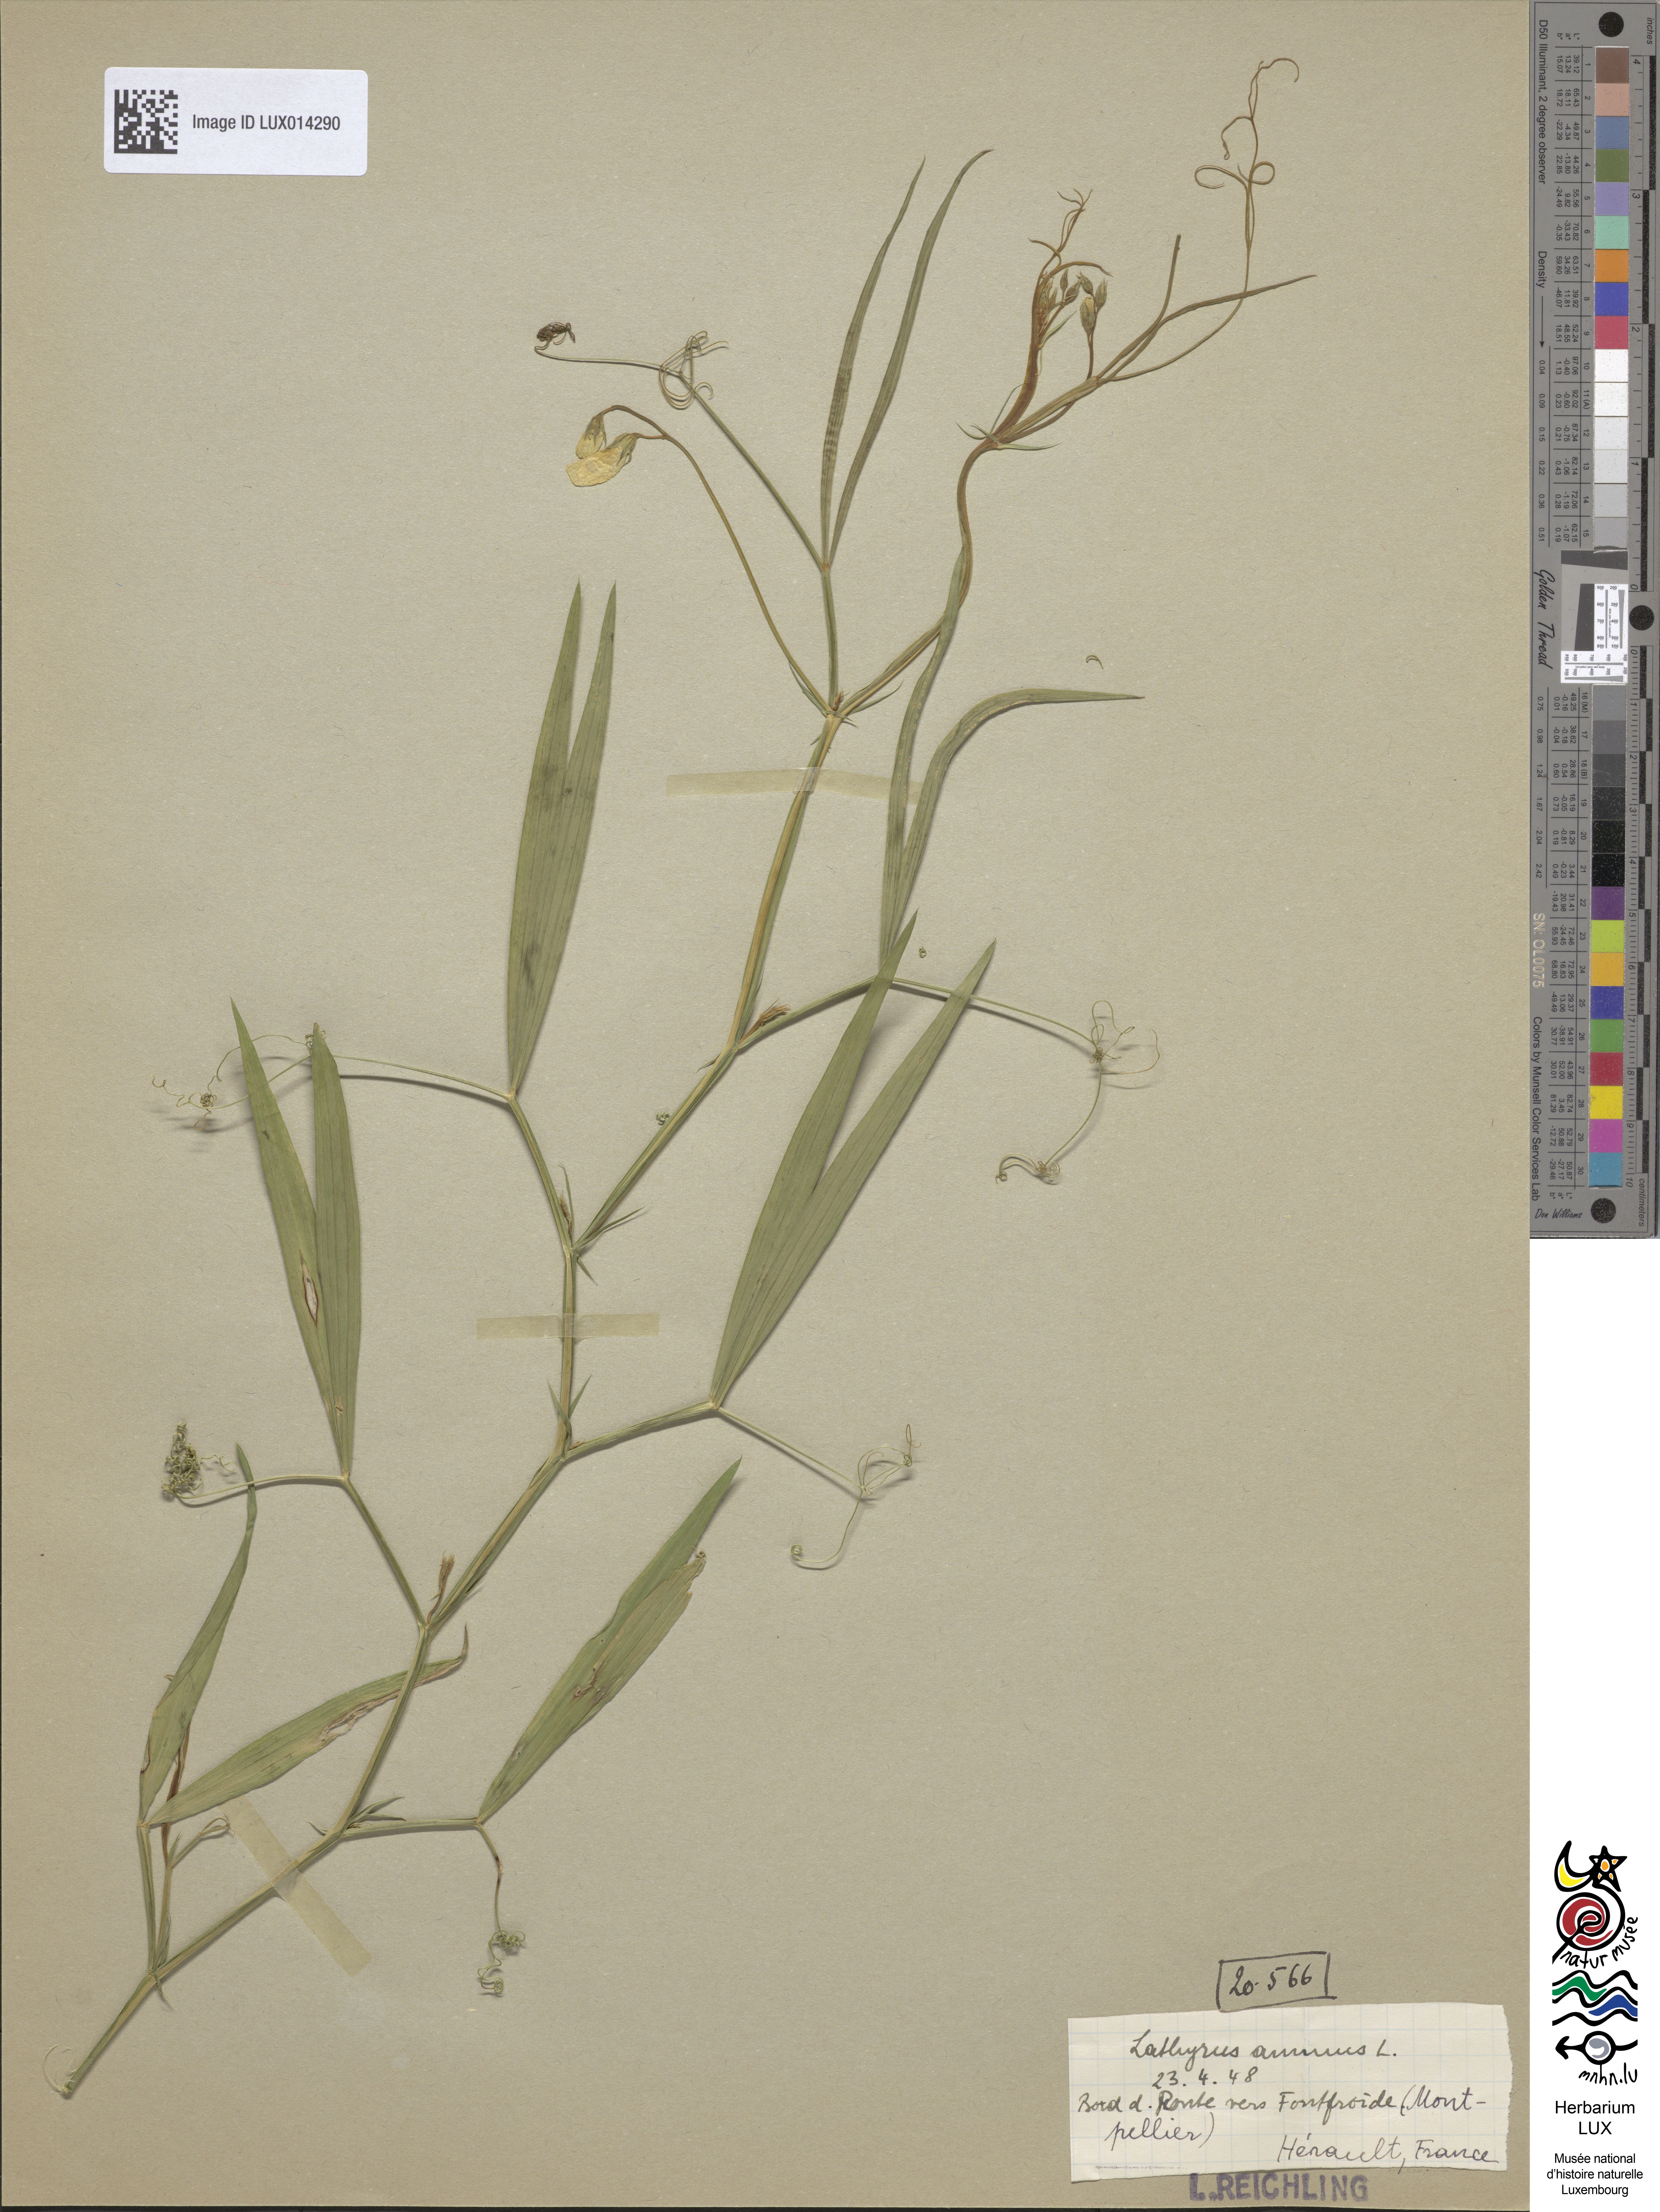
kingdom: Plantae
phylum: Tracheophyta
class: Magnoliopsida
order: Fabales
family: Fabaceae
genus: Lathyrus
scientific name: Lathyrus annuus
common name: Fodder pea
